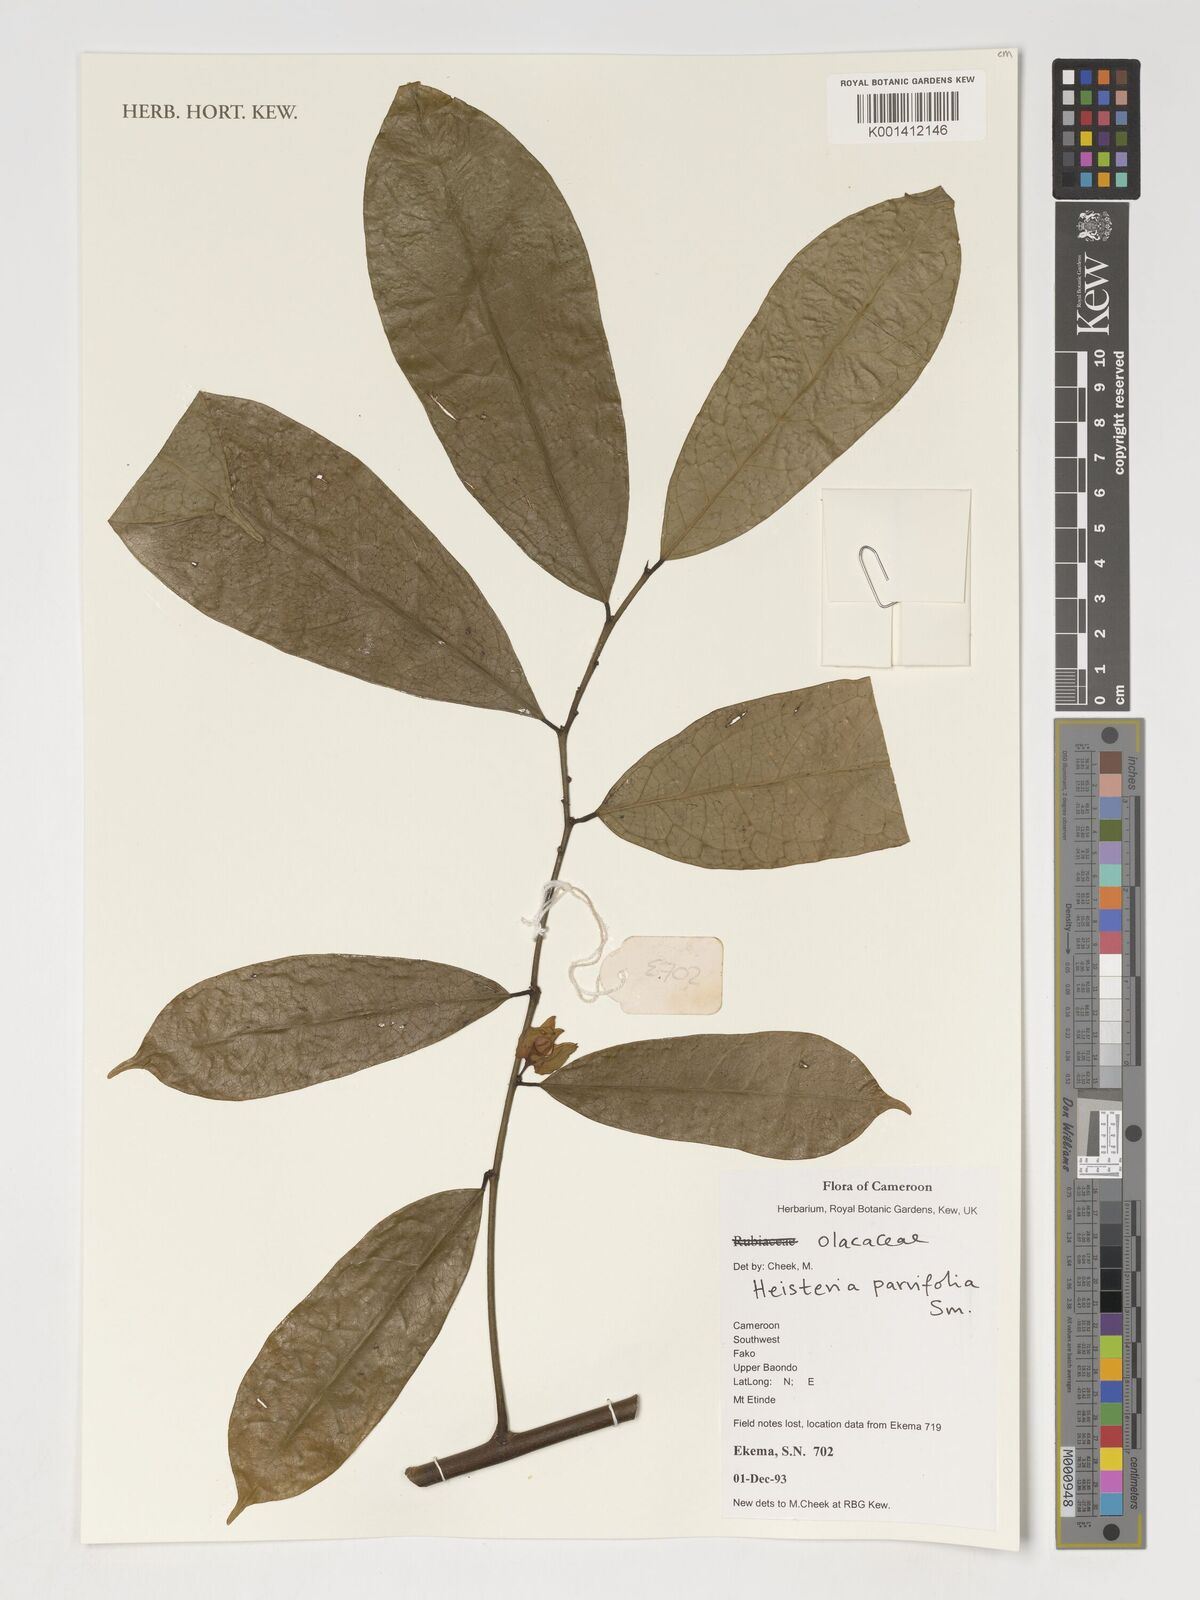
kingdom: Plantae
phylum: Tracheophyta
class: Magnoliopsida
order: Santalales
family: Erythropalaceae
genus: Heisteria
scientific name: Heisteria parvifolia
